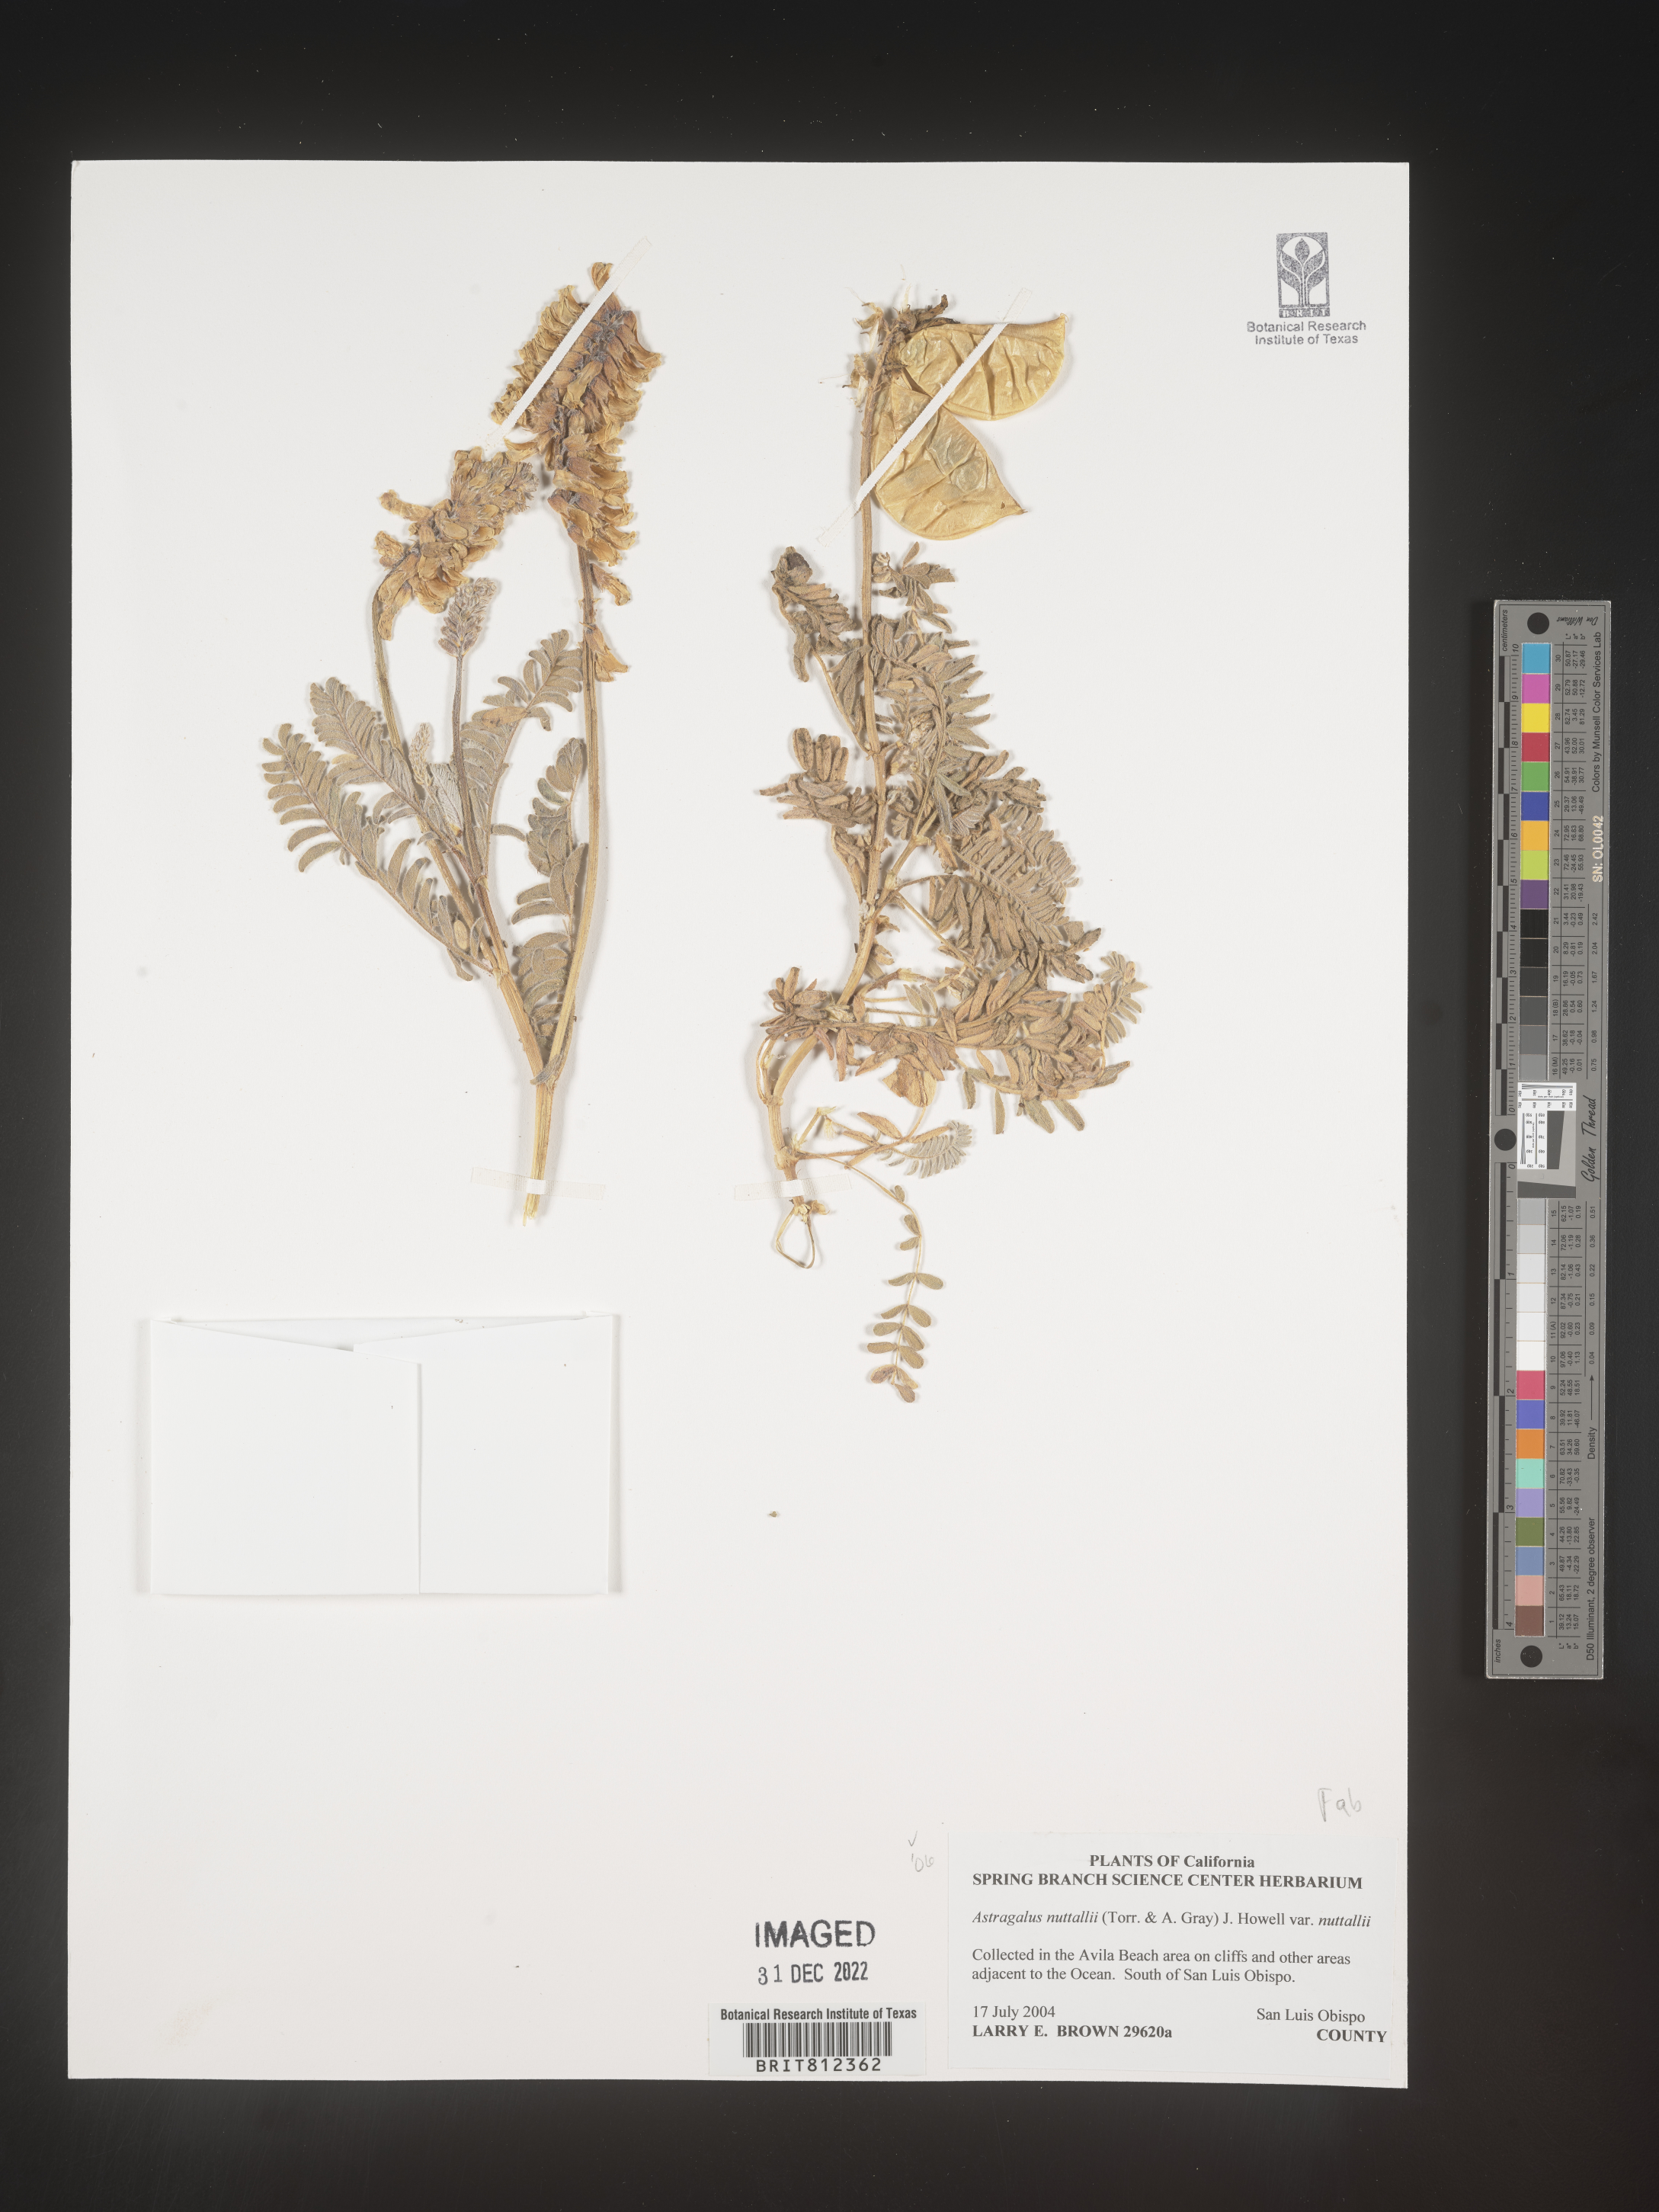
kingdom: Plantae
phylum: Tracheophyta
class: Magnoliopsida
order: Fabales
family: Fabaceae
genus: Astragalus
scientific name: Astragalus nuttallii
